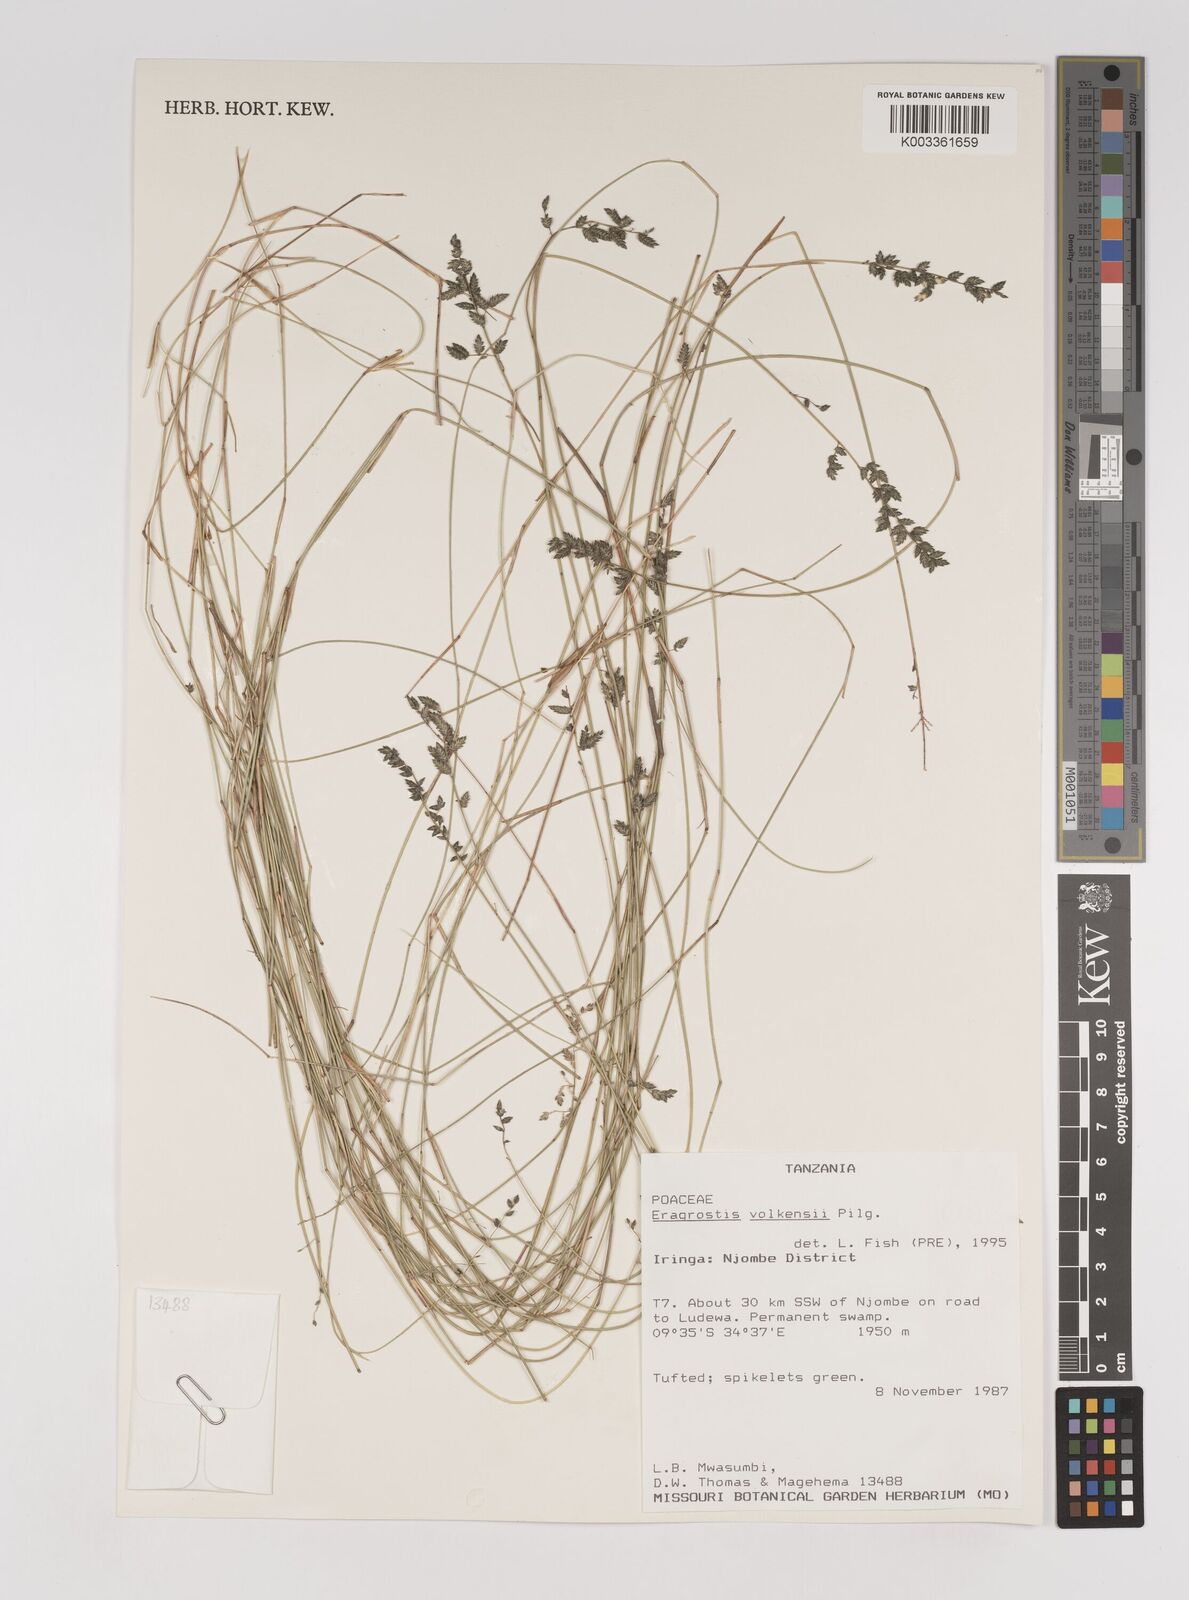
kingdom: Plantae
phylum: Tracheophyta
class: Liliopsida
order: Poales
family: Poaceae
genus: Eragrostis
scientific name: Eragrostis volkensii
